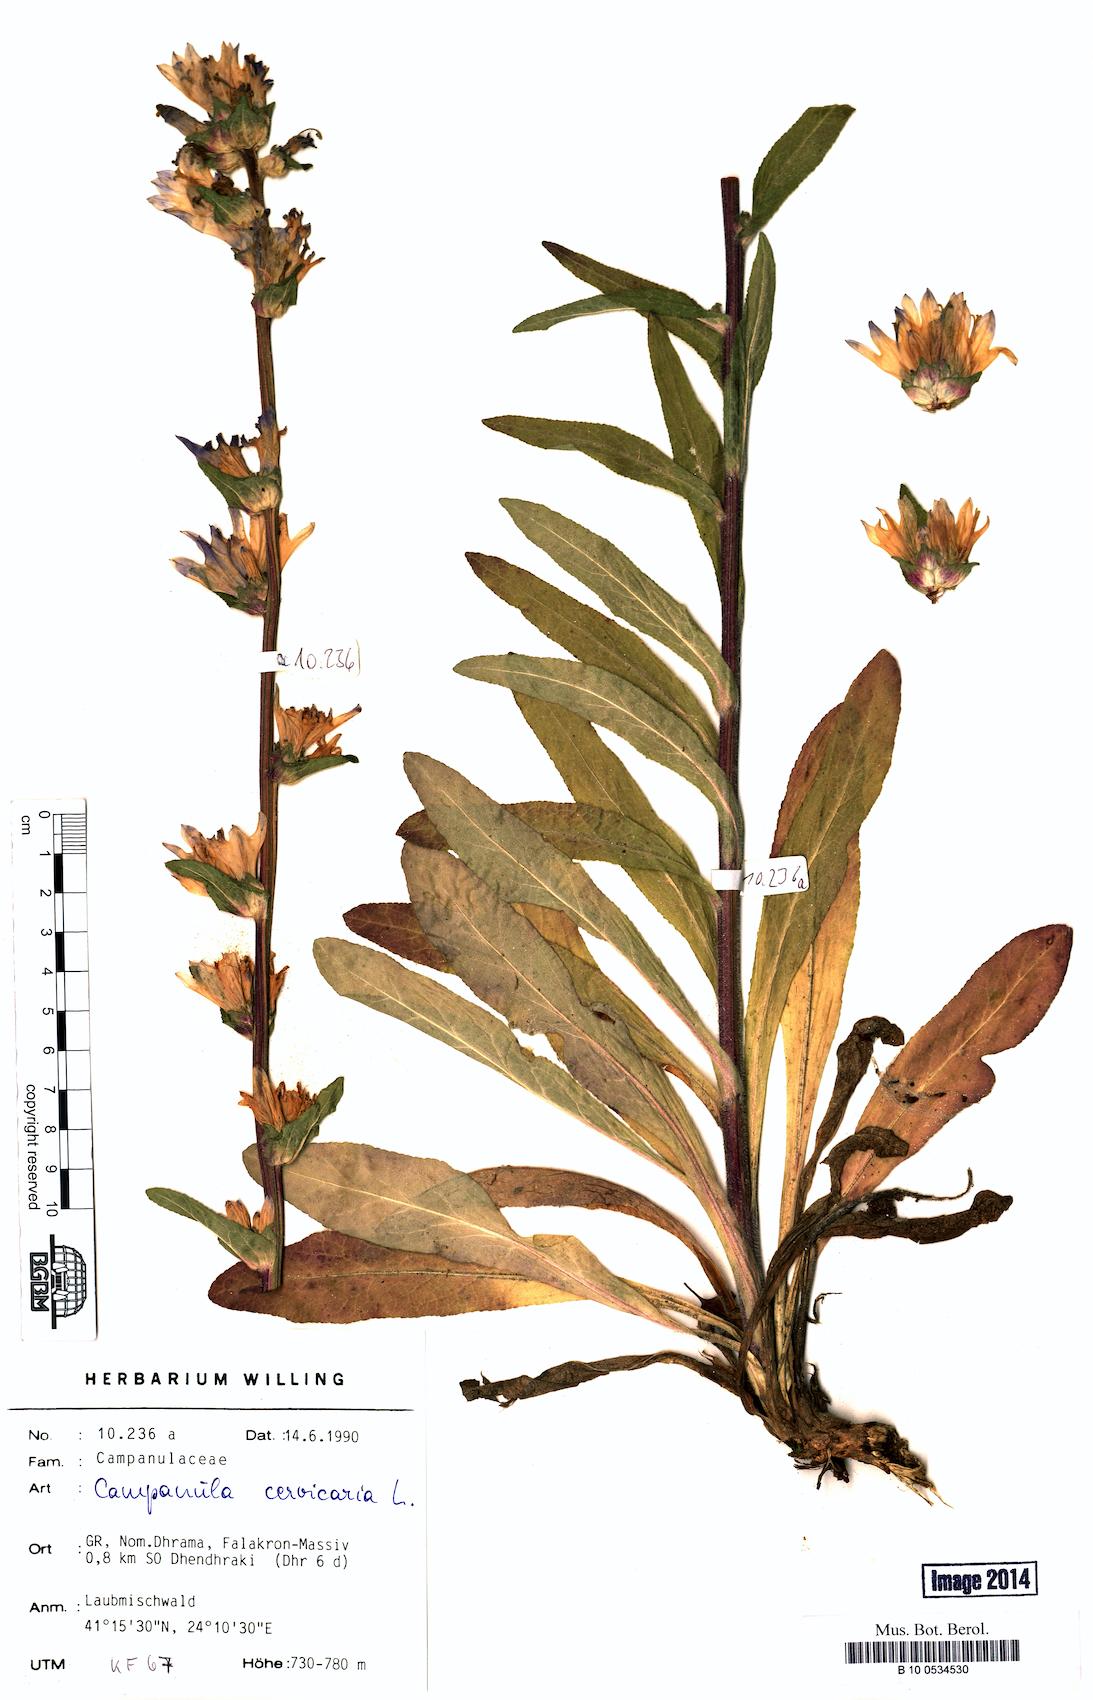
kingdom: Plantae
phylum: Tracheophyta
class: Magnoliopsida
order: Asterales
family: Campanulaceae
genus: Campanula
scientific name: Campanula cervicaria
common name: Bristly bellflower
